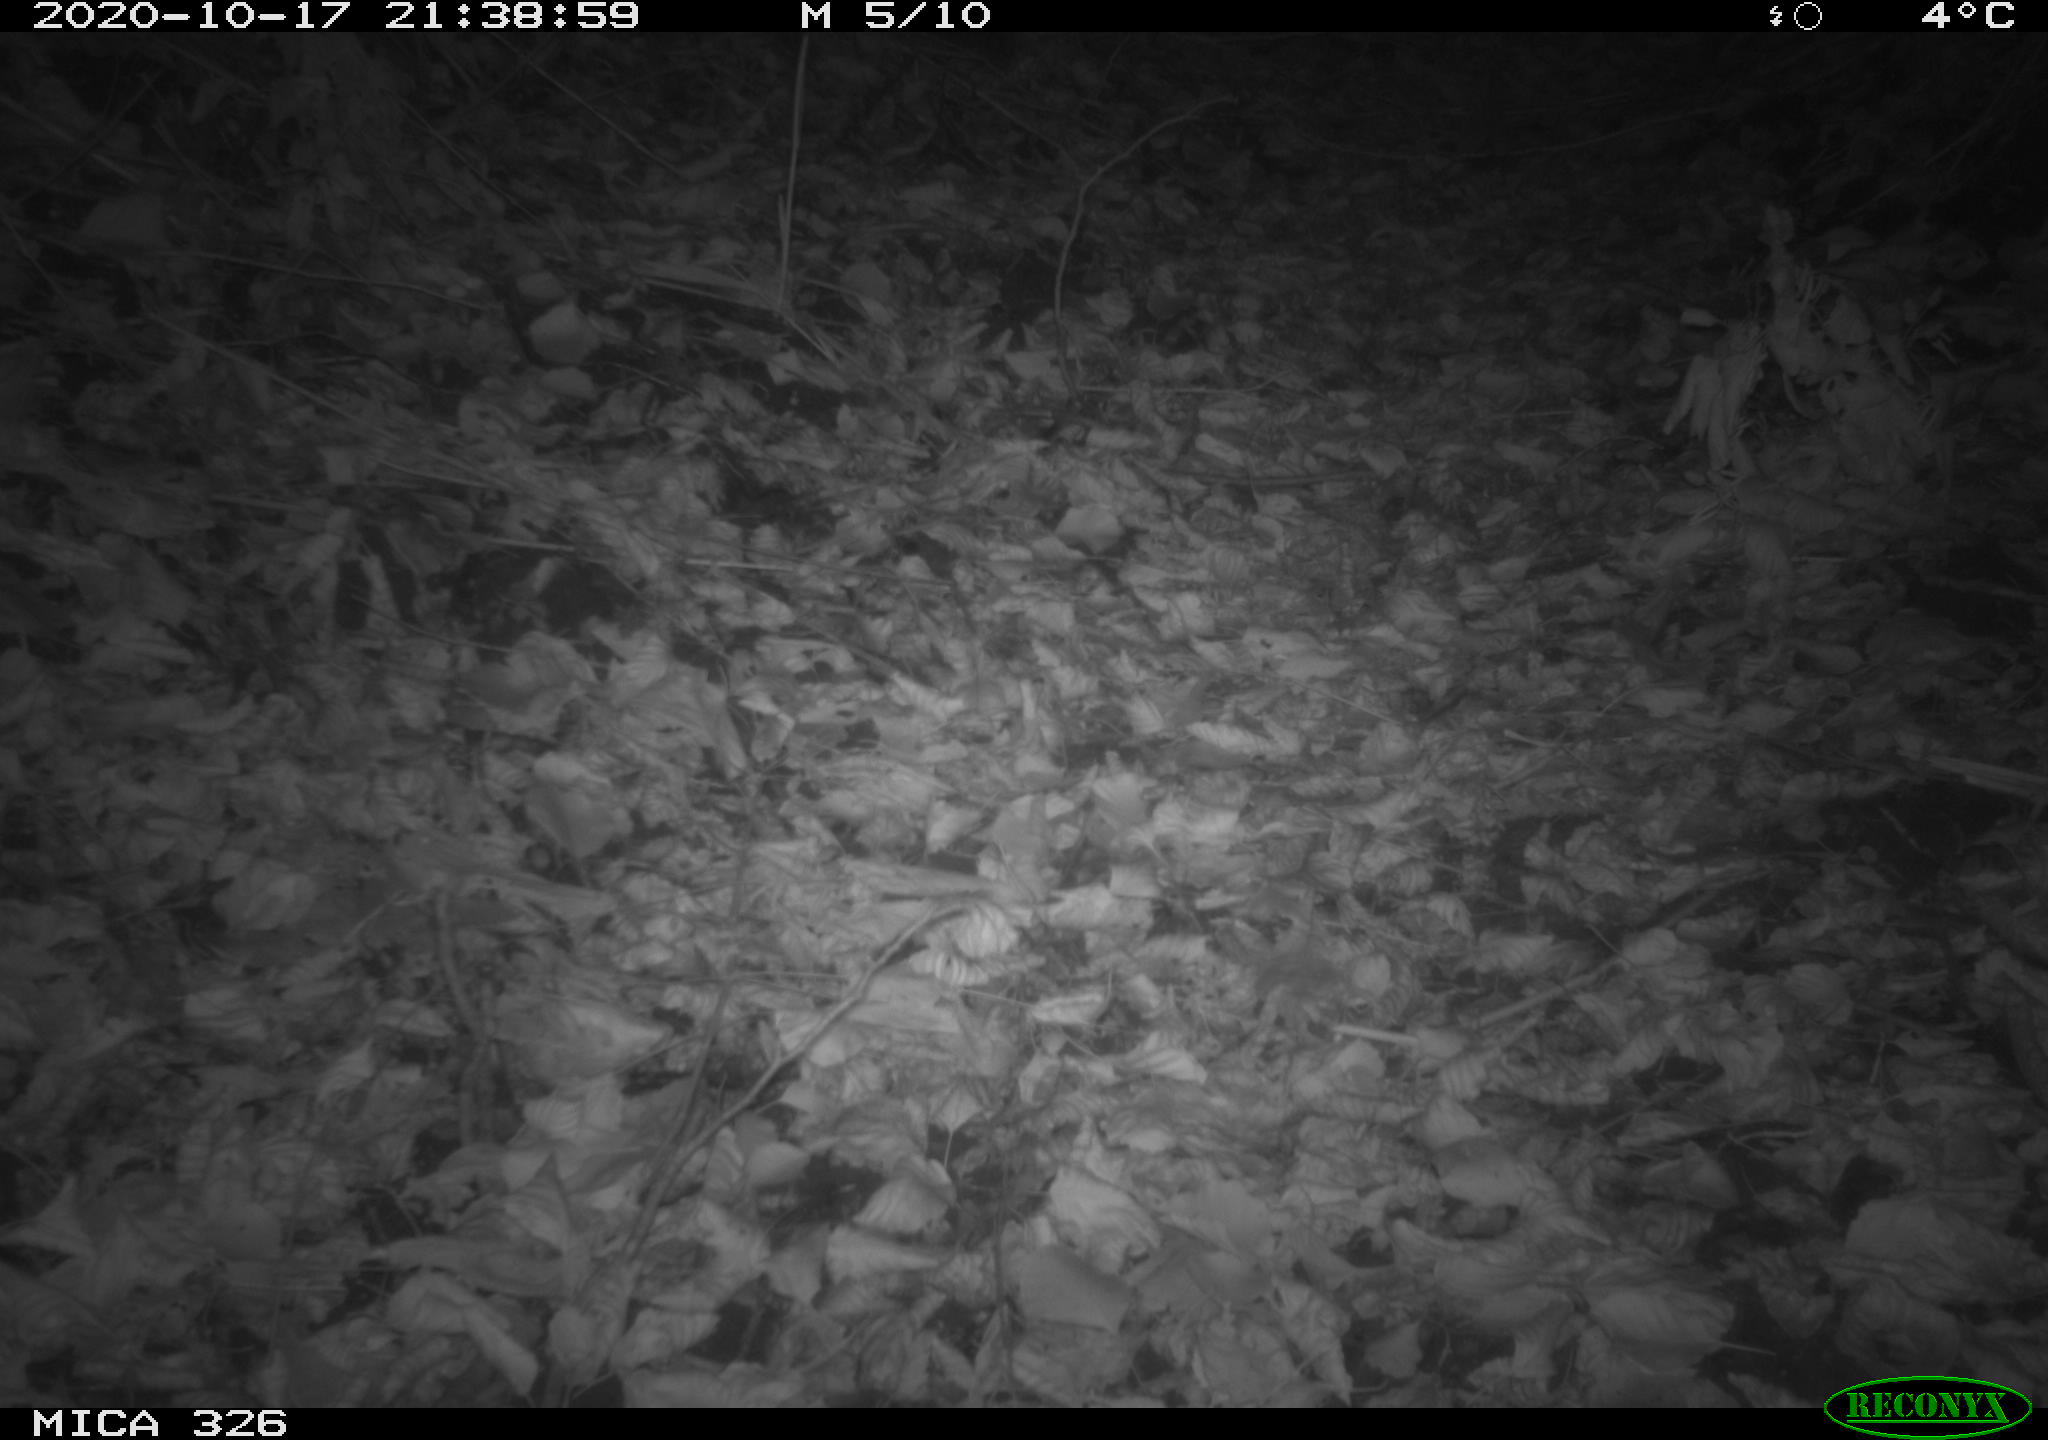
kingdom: Animalia
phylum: Chordata
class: Mammalia
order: Carnivora
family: Mustelidae
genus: Lutra
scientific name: Lutra lutra
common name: European otter
